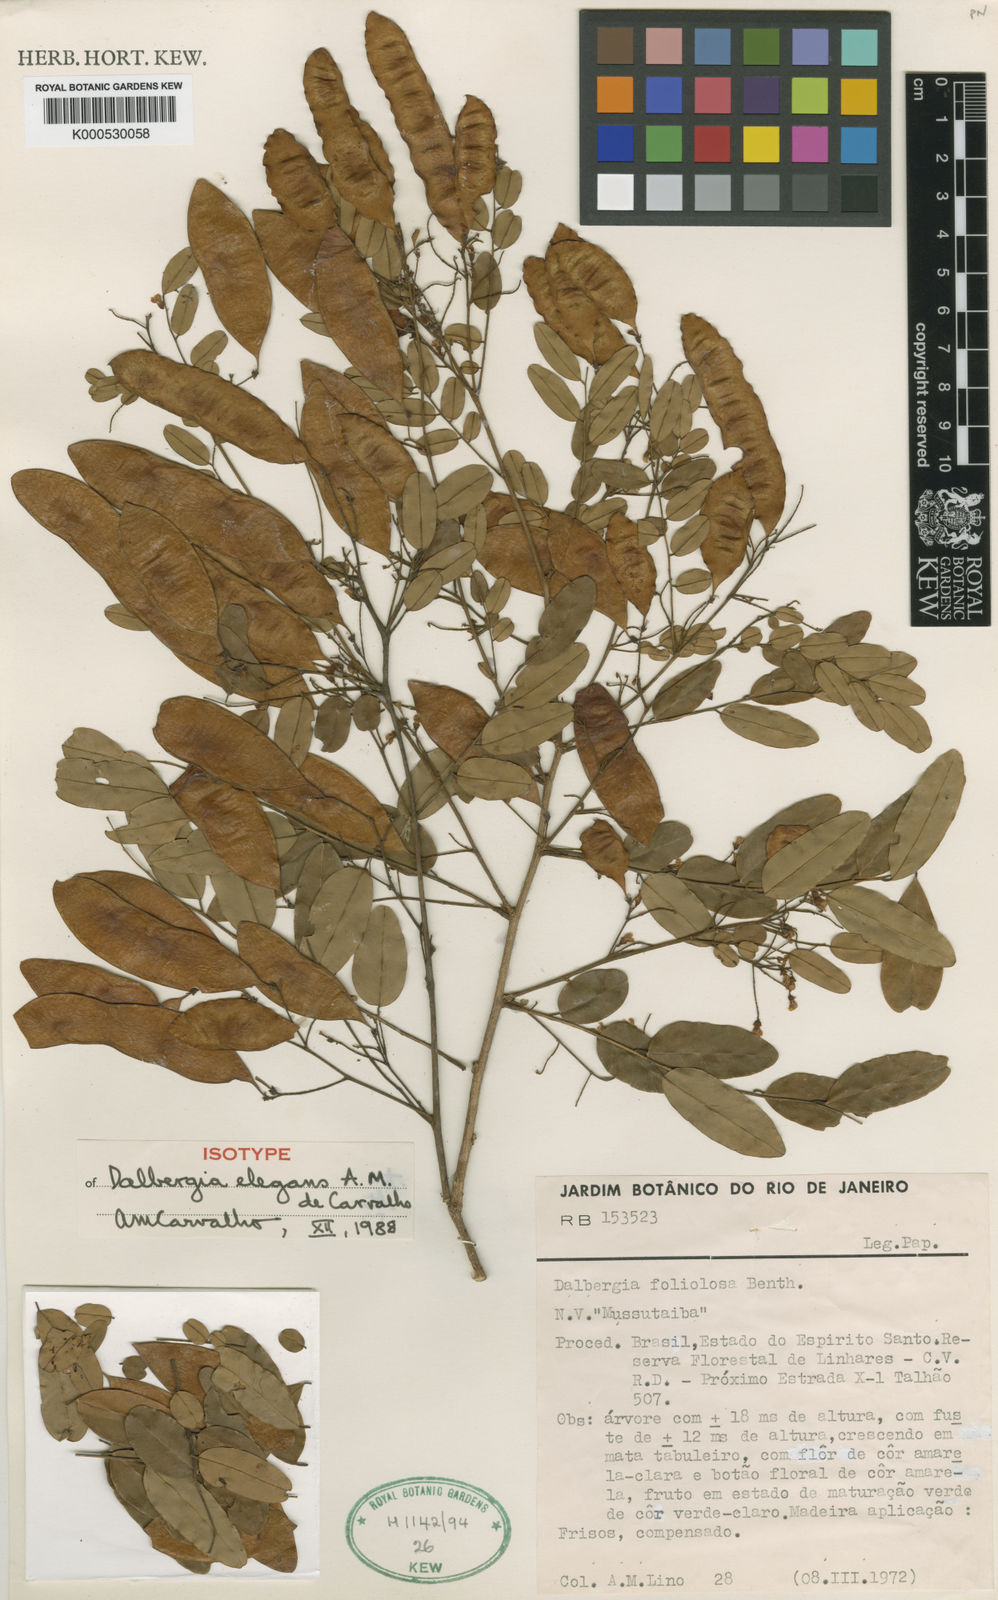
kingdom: Plantae
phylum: Tracheophyta
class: Magnoliopsida
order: Fabales
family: Fabaceae
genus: Dalbergia
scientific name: Dalbergia elegans
